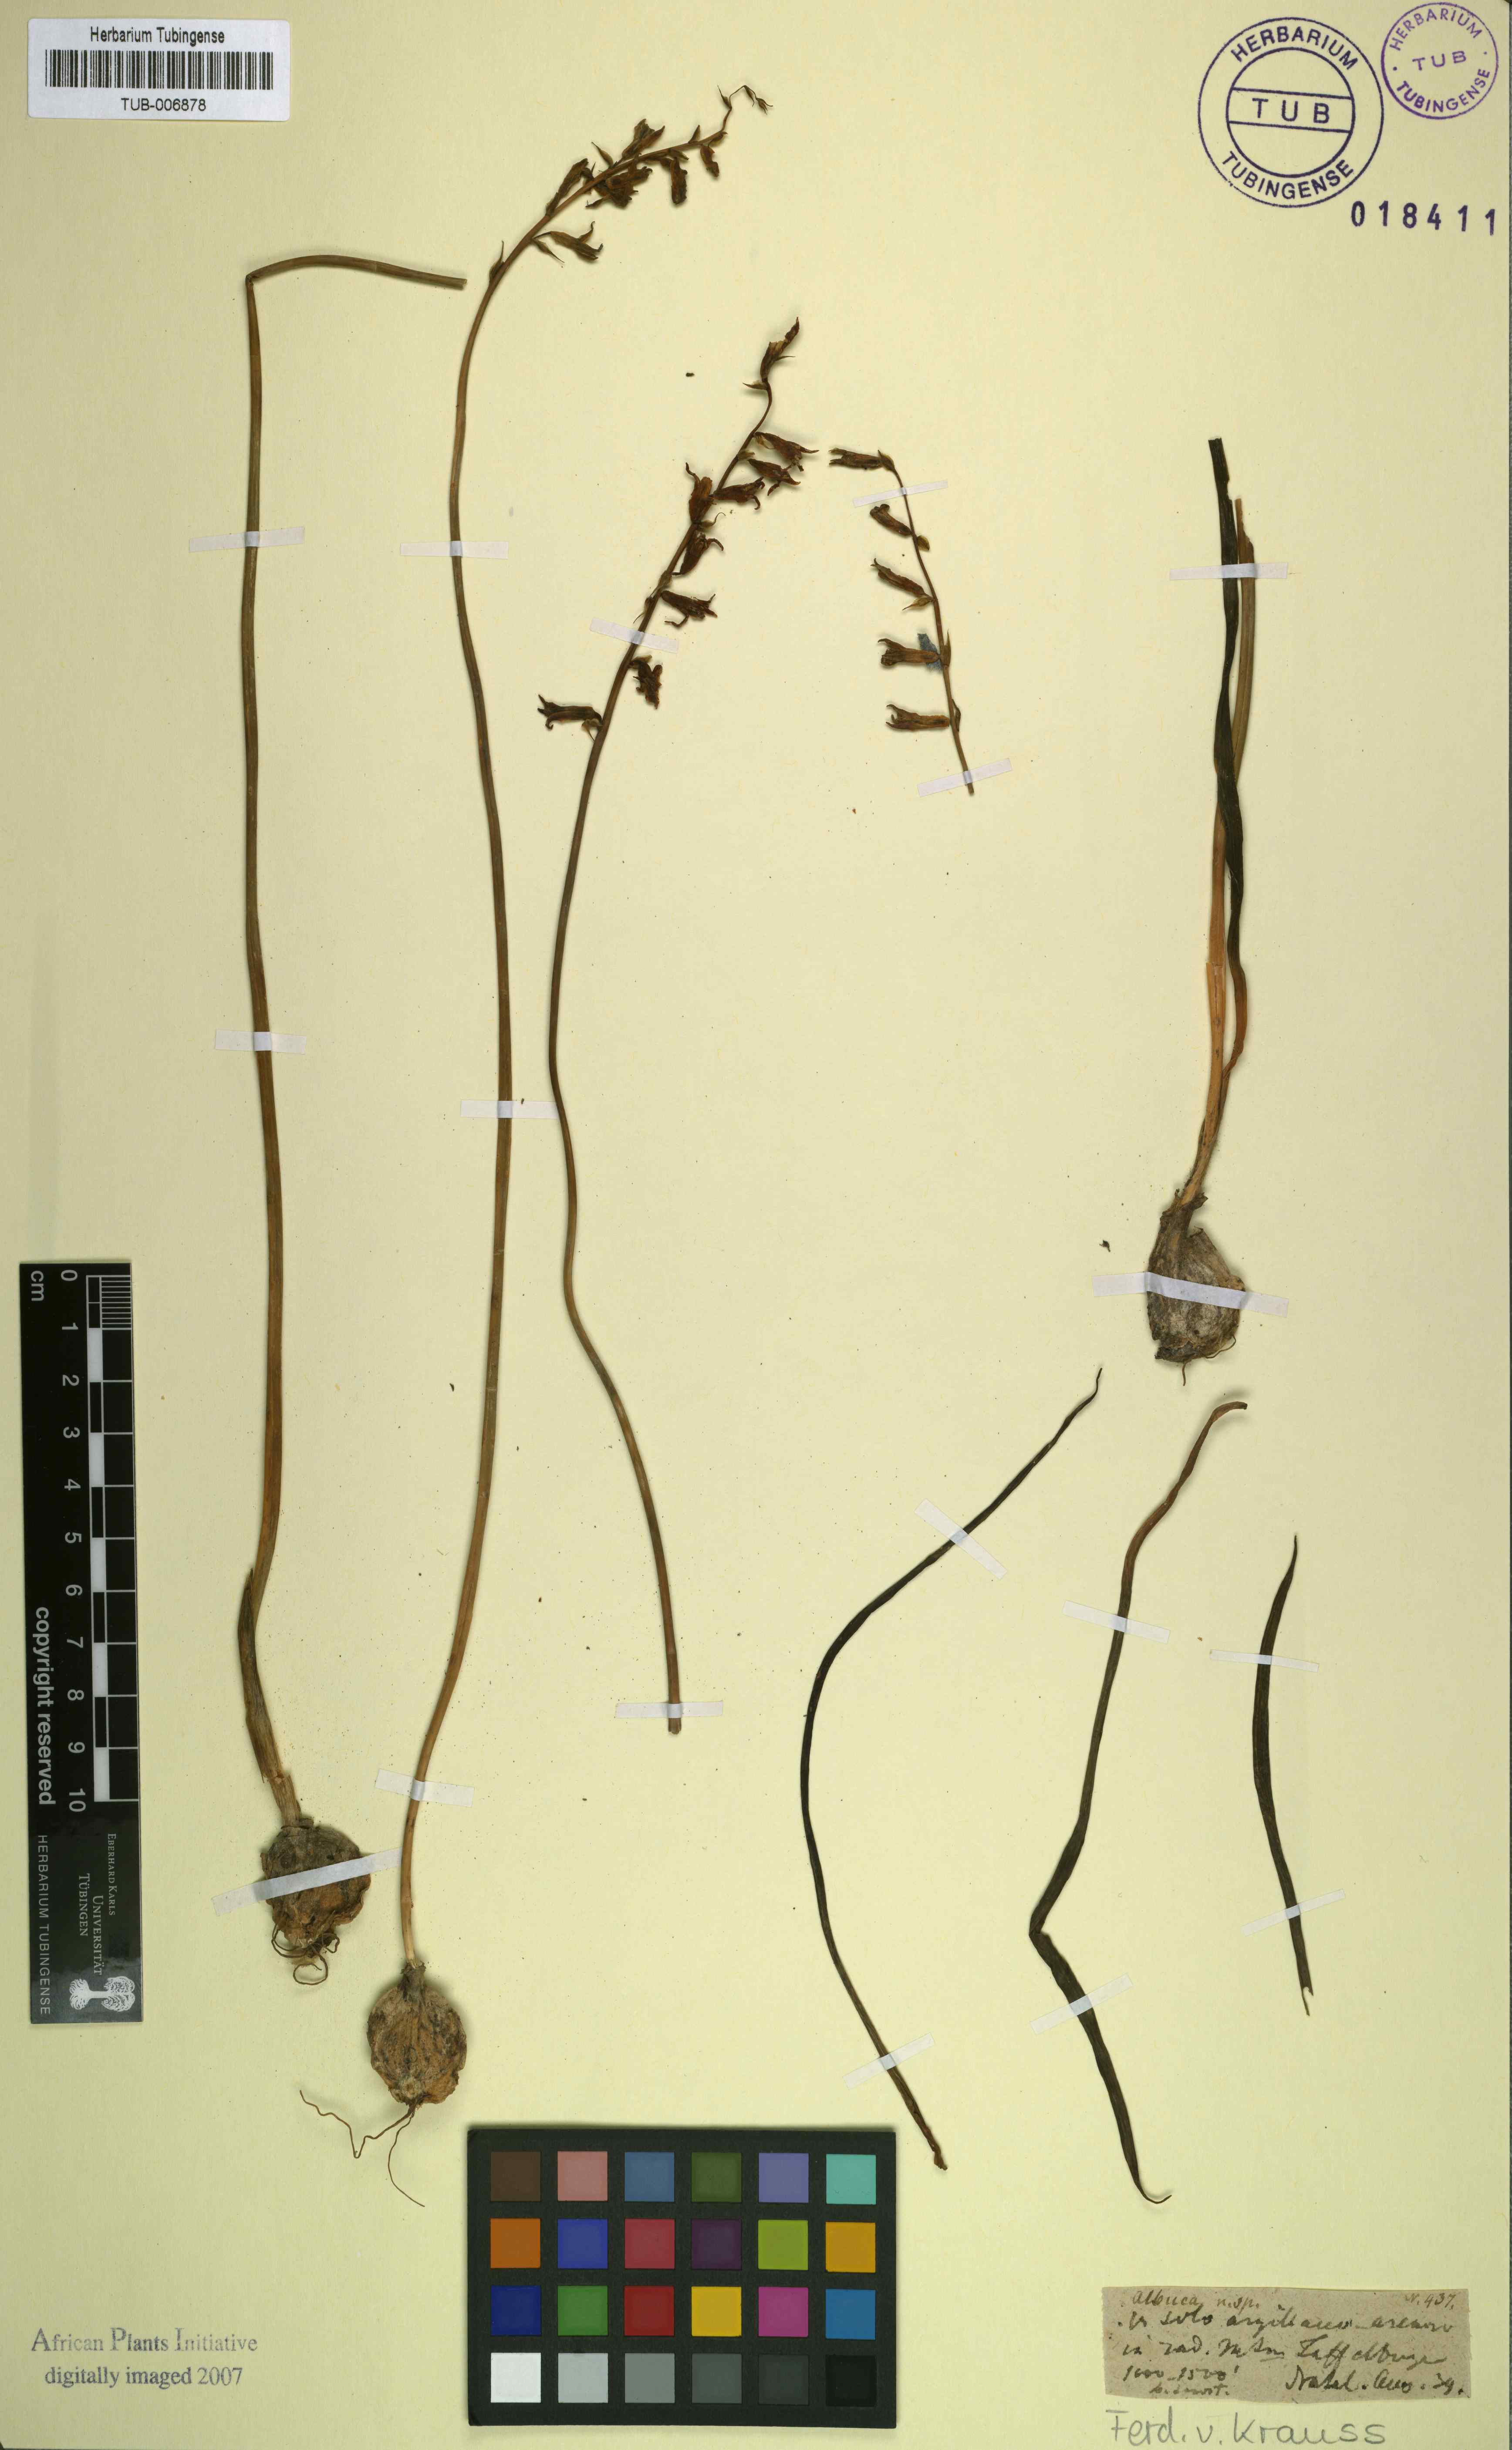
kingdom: Plantae
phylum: Tracheophyta
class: Liliopsida
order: Asparagales
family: Asparagaceae
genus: Lachenalia
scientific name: Lachenalia orchioides
